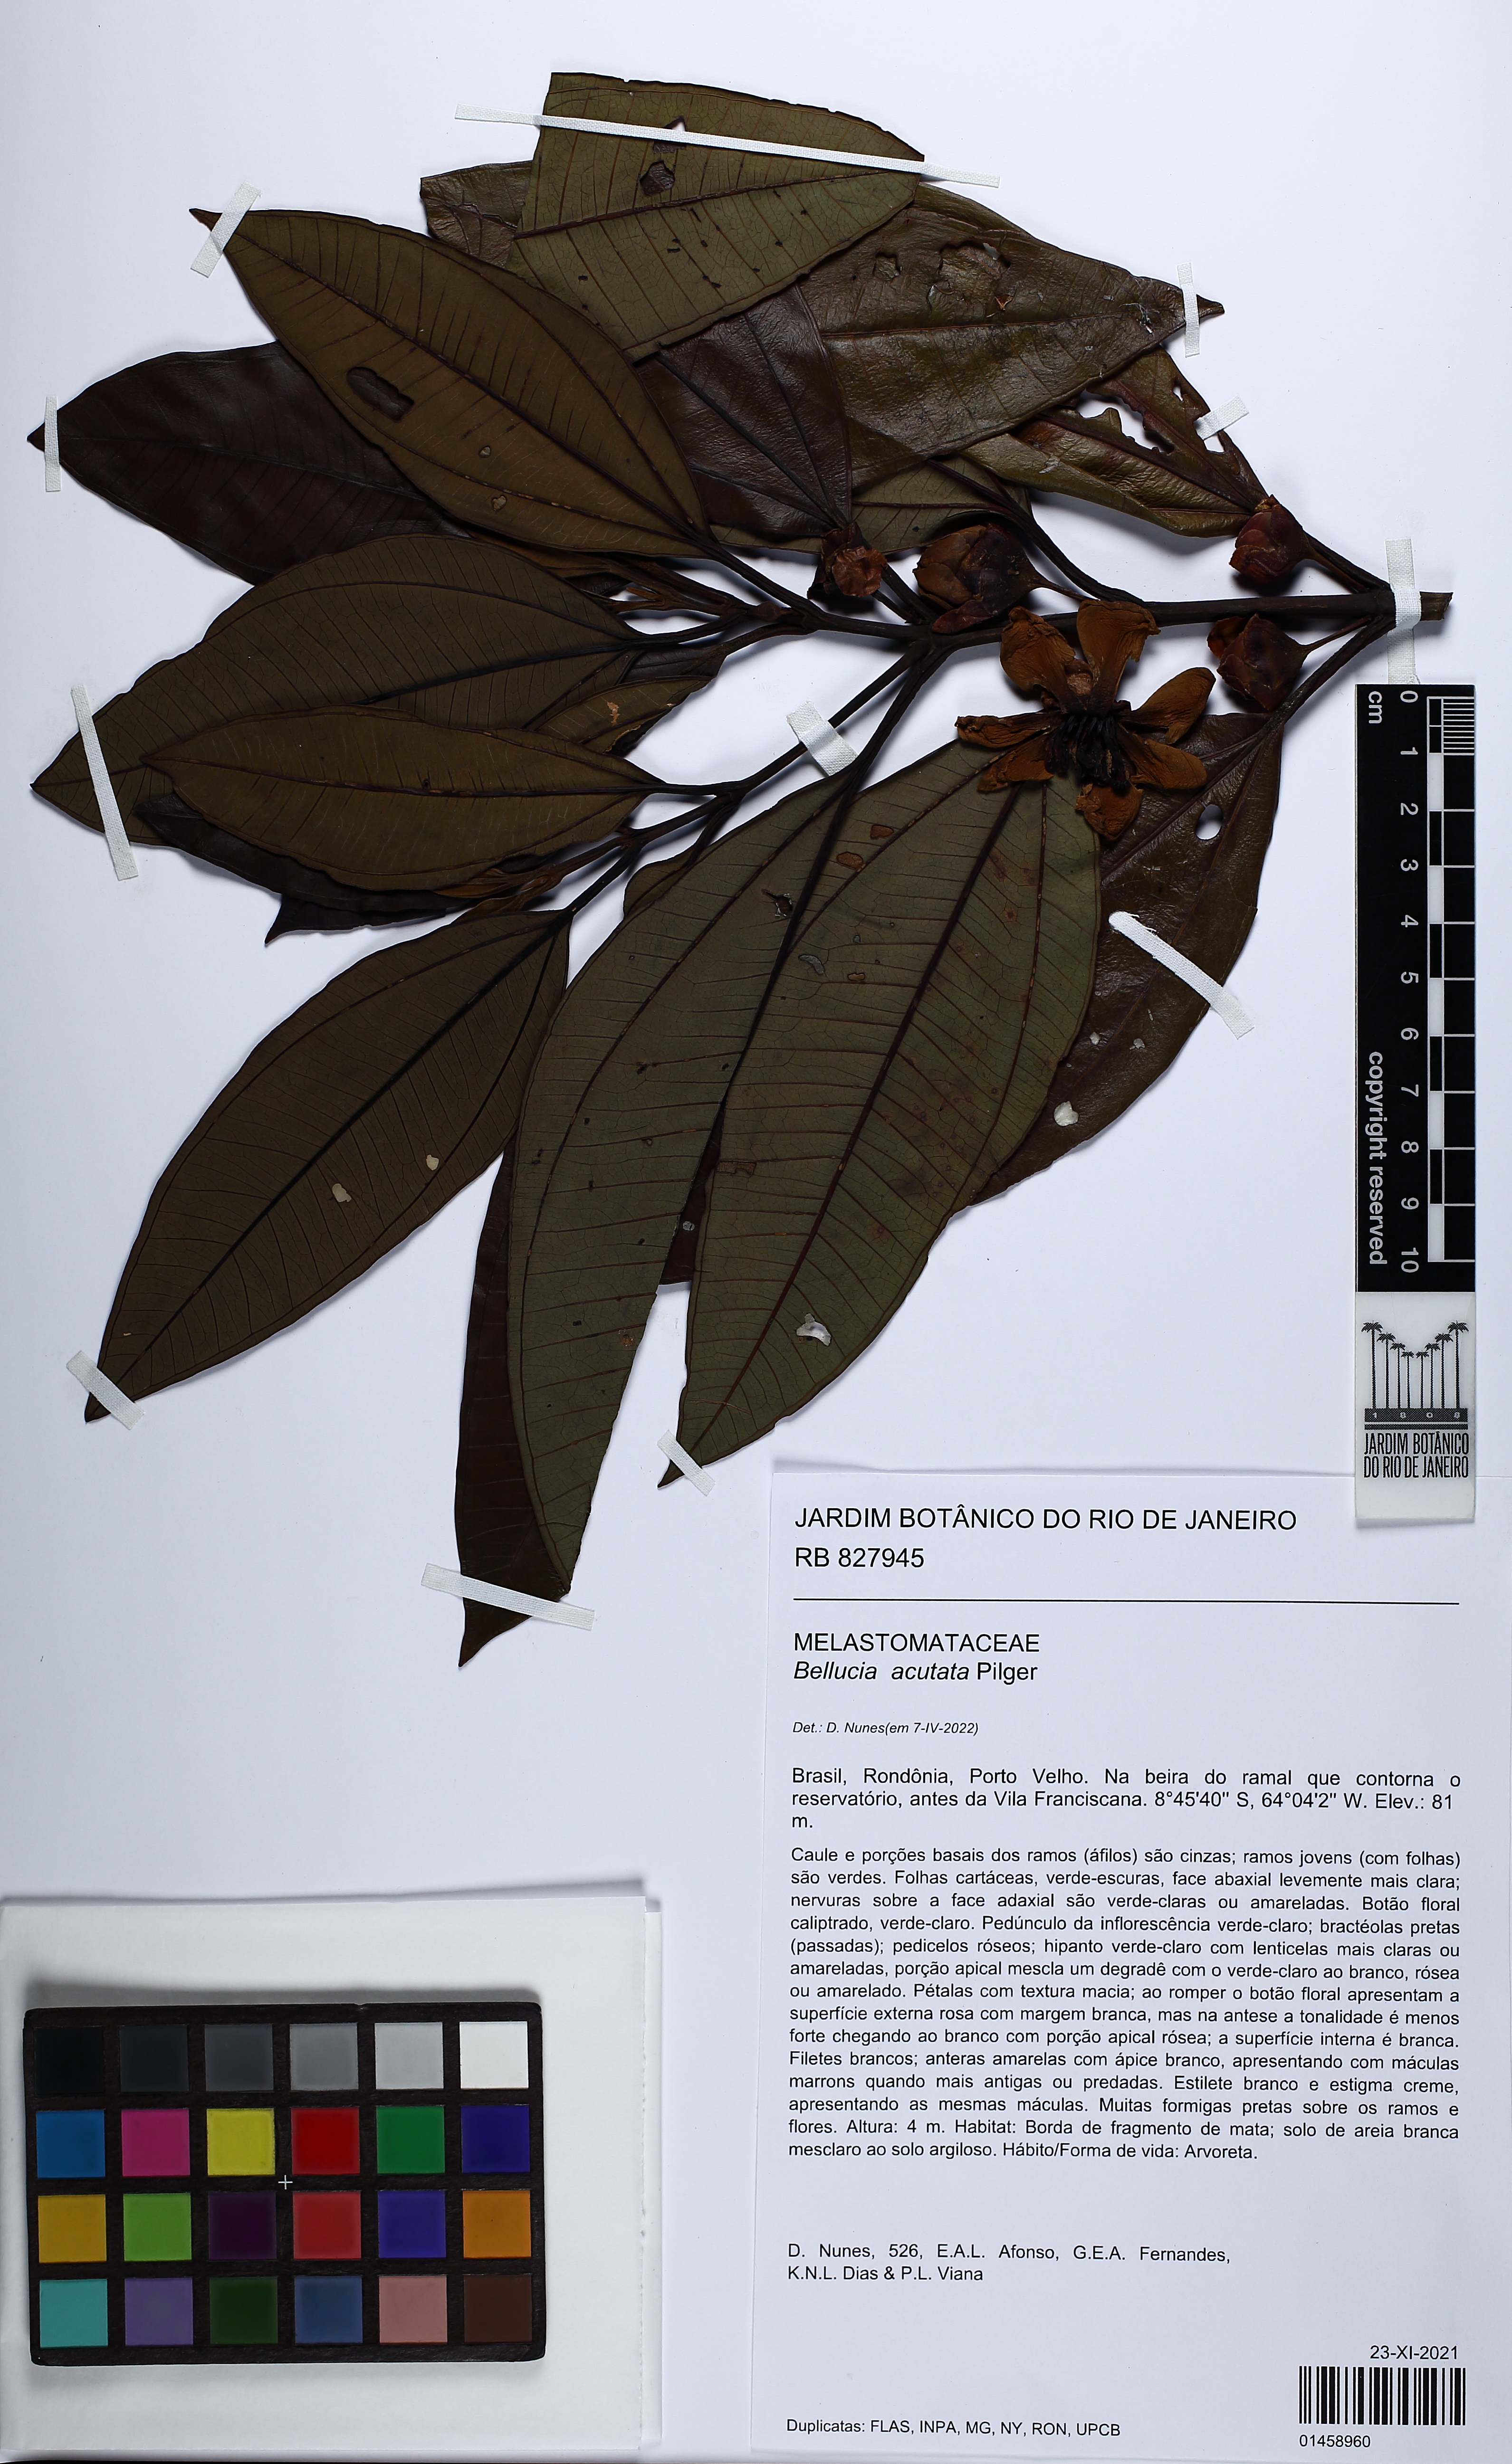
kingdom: Plantae
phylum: Tracheophyta
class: Magnoliopsida
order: Myrtales
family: Melastomataceae
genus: Bellucia
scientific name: Bellucia acutata
